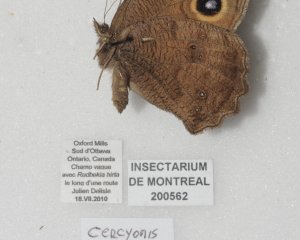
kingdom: Animalia
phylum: Arthropoda
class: Insecta
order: Lepidoptera
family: Nymphalidae
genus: Cercyonis
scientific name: Cercyonis pegala
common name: Common Wood-Nymph
